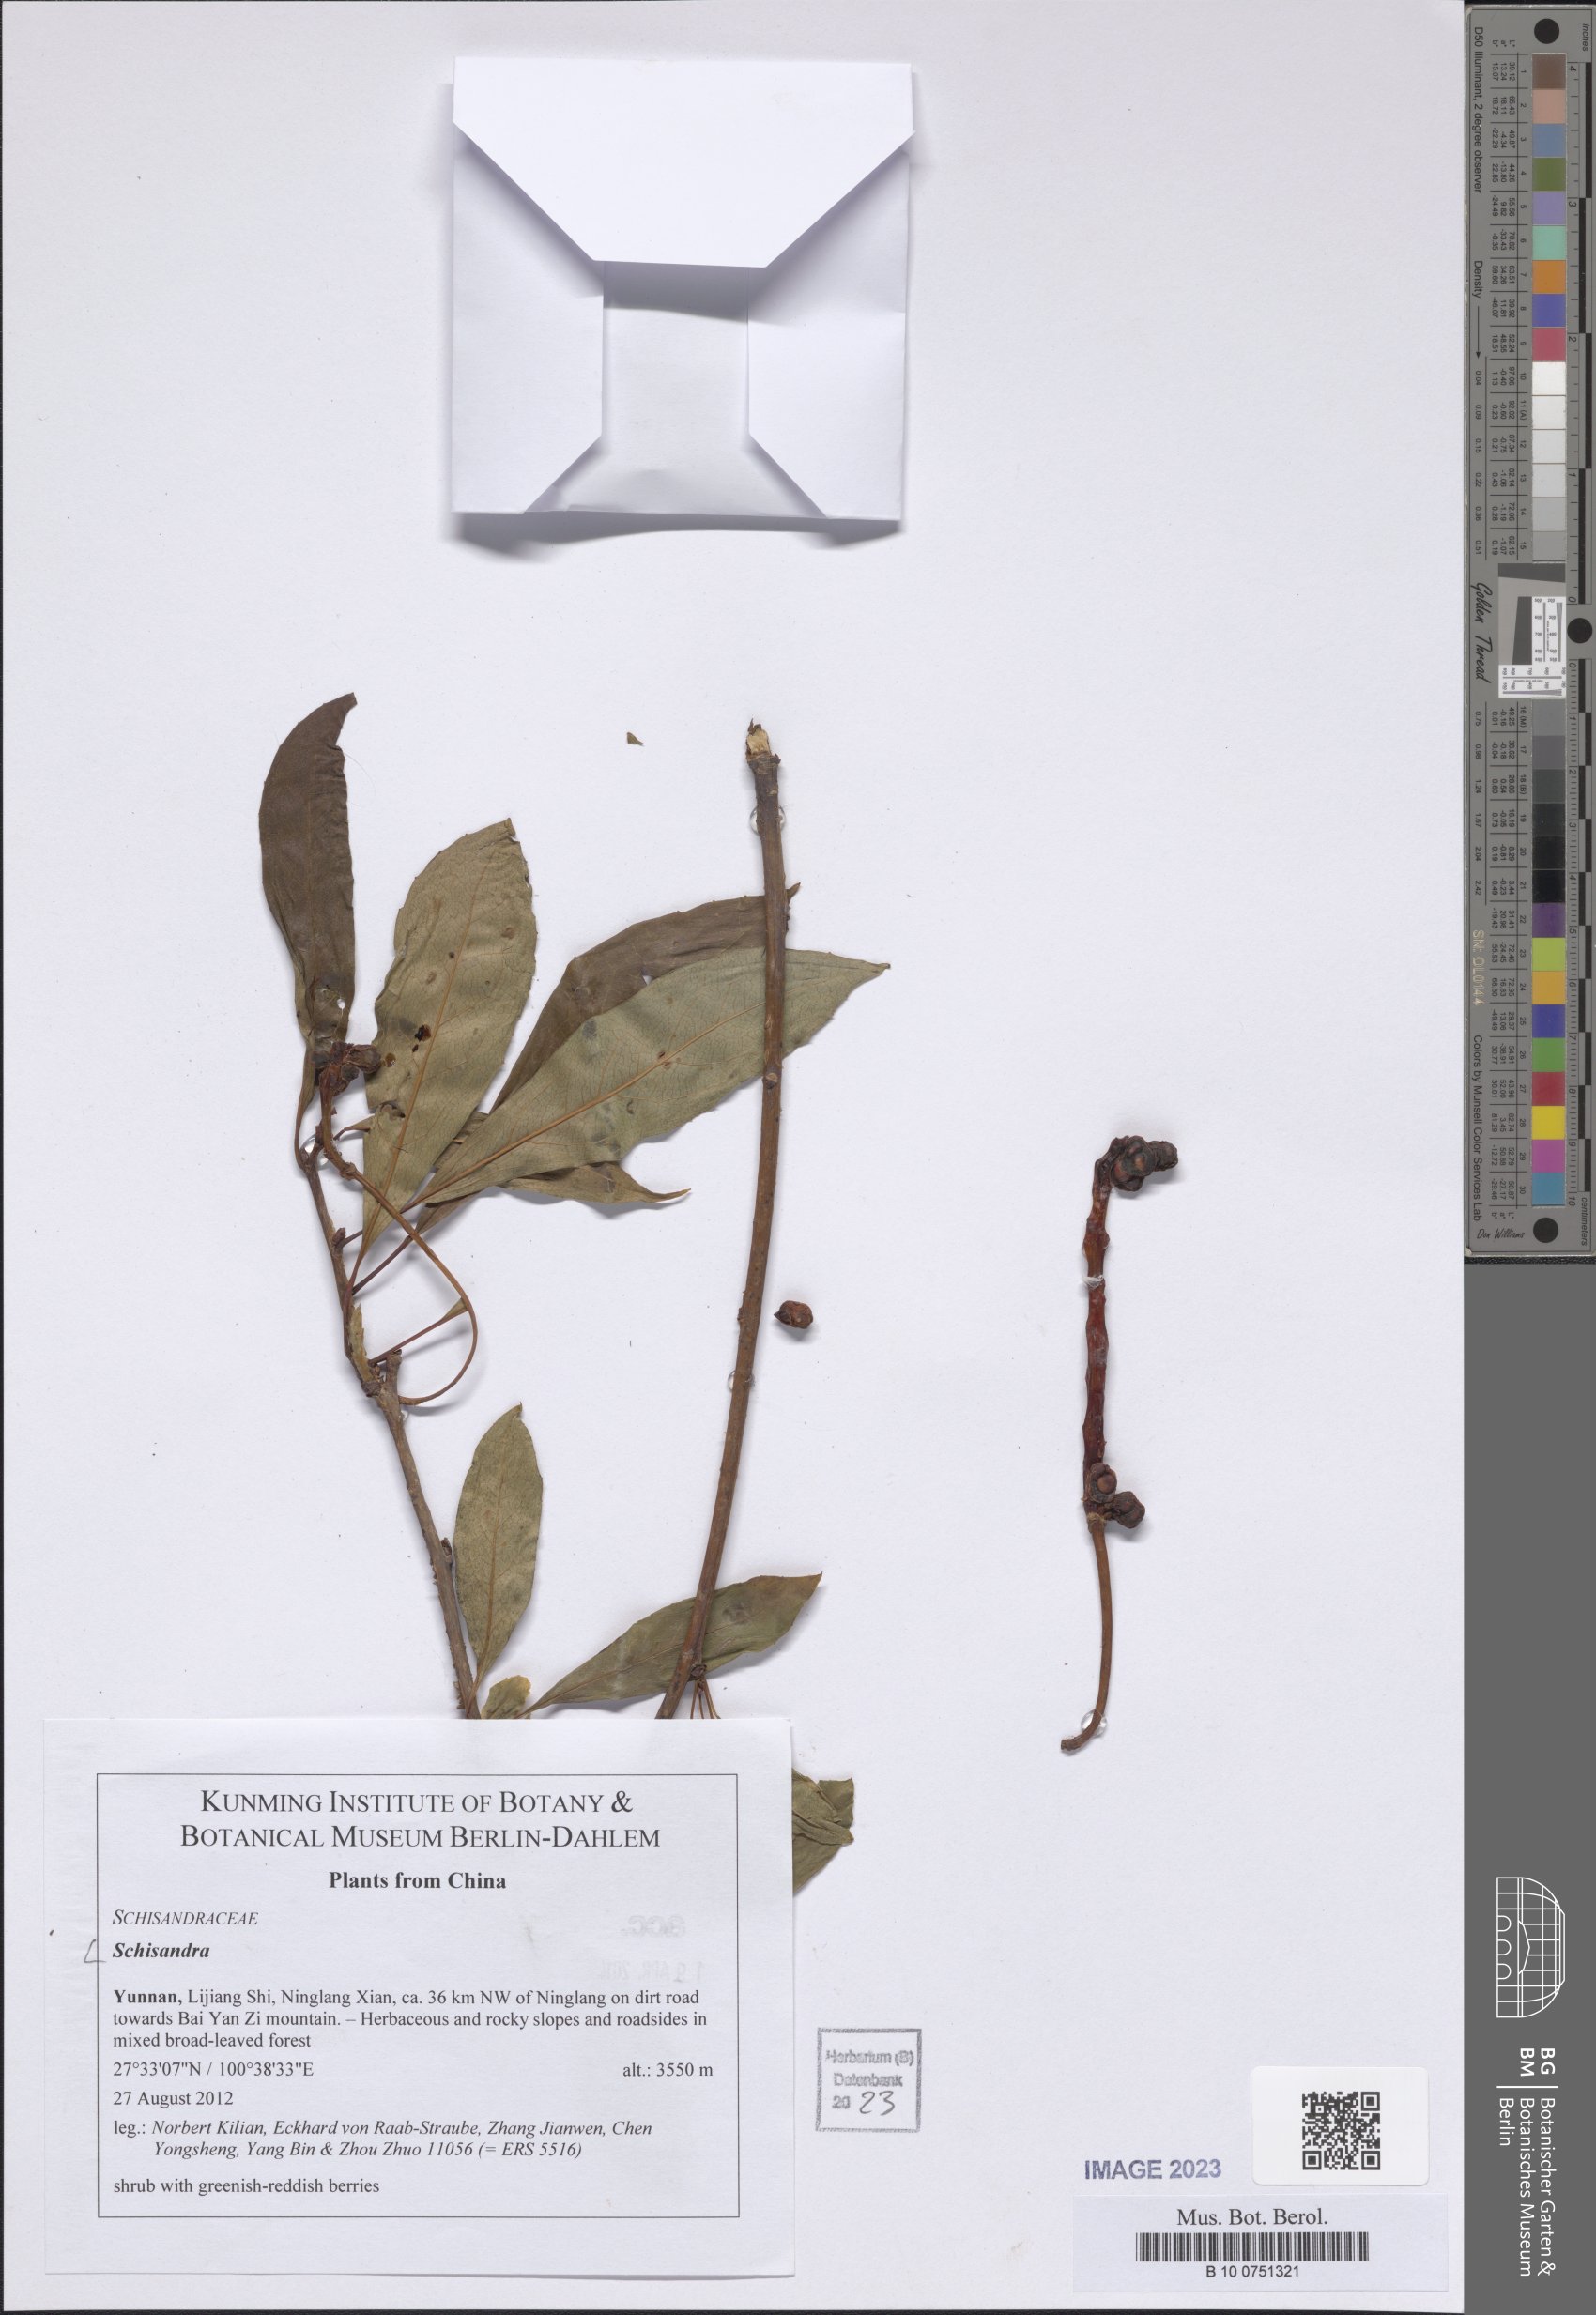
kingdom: Plantae
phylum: Tracheophyta
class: Magnoliopsida
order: Austrobaileyales
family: Schisandraceae
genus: Schisandra
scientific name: Schisandra
